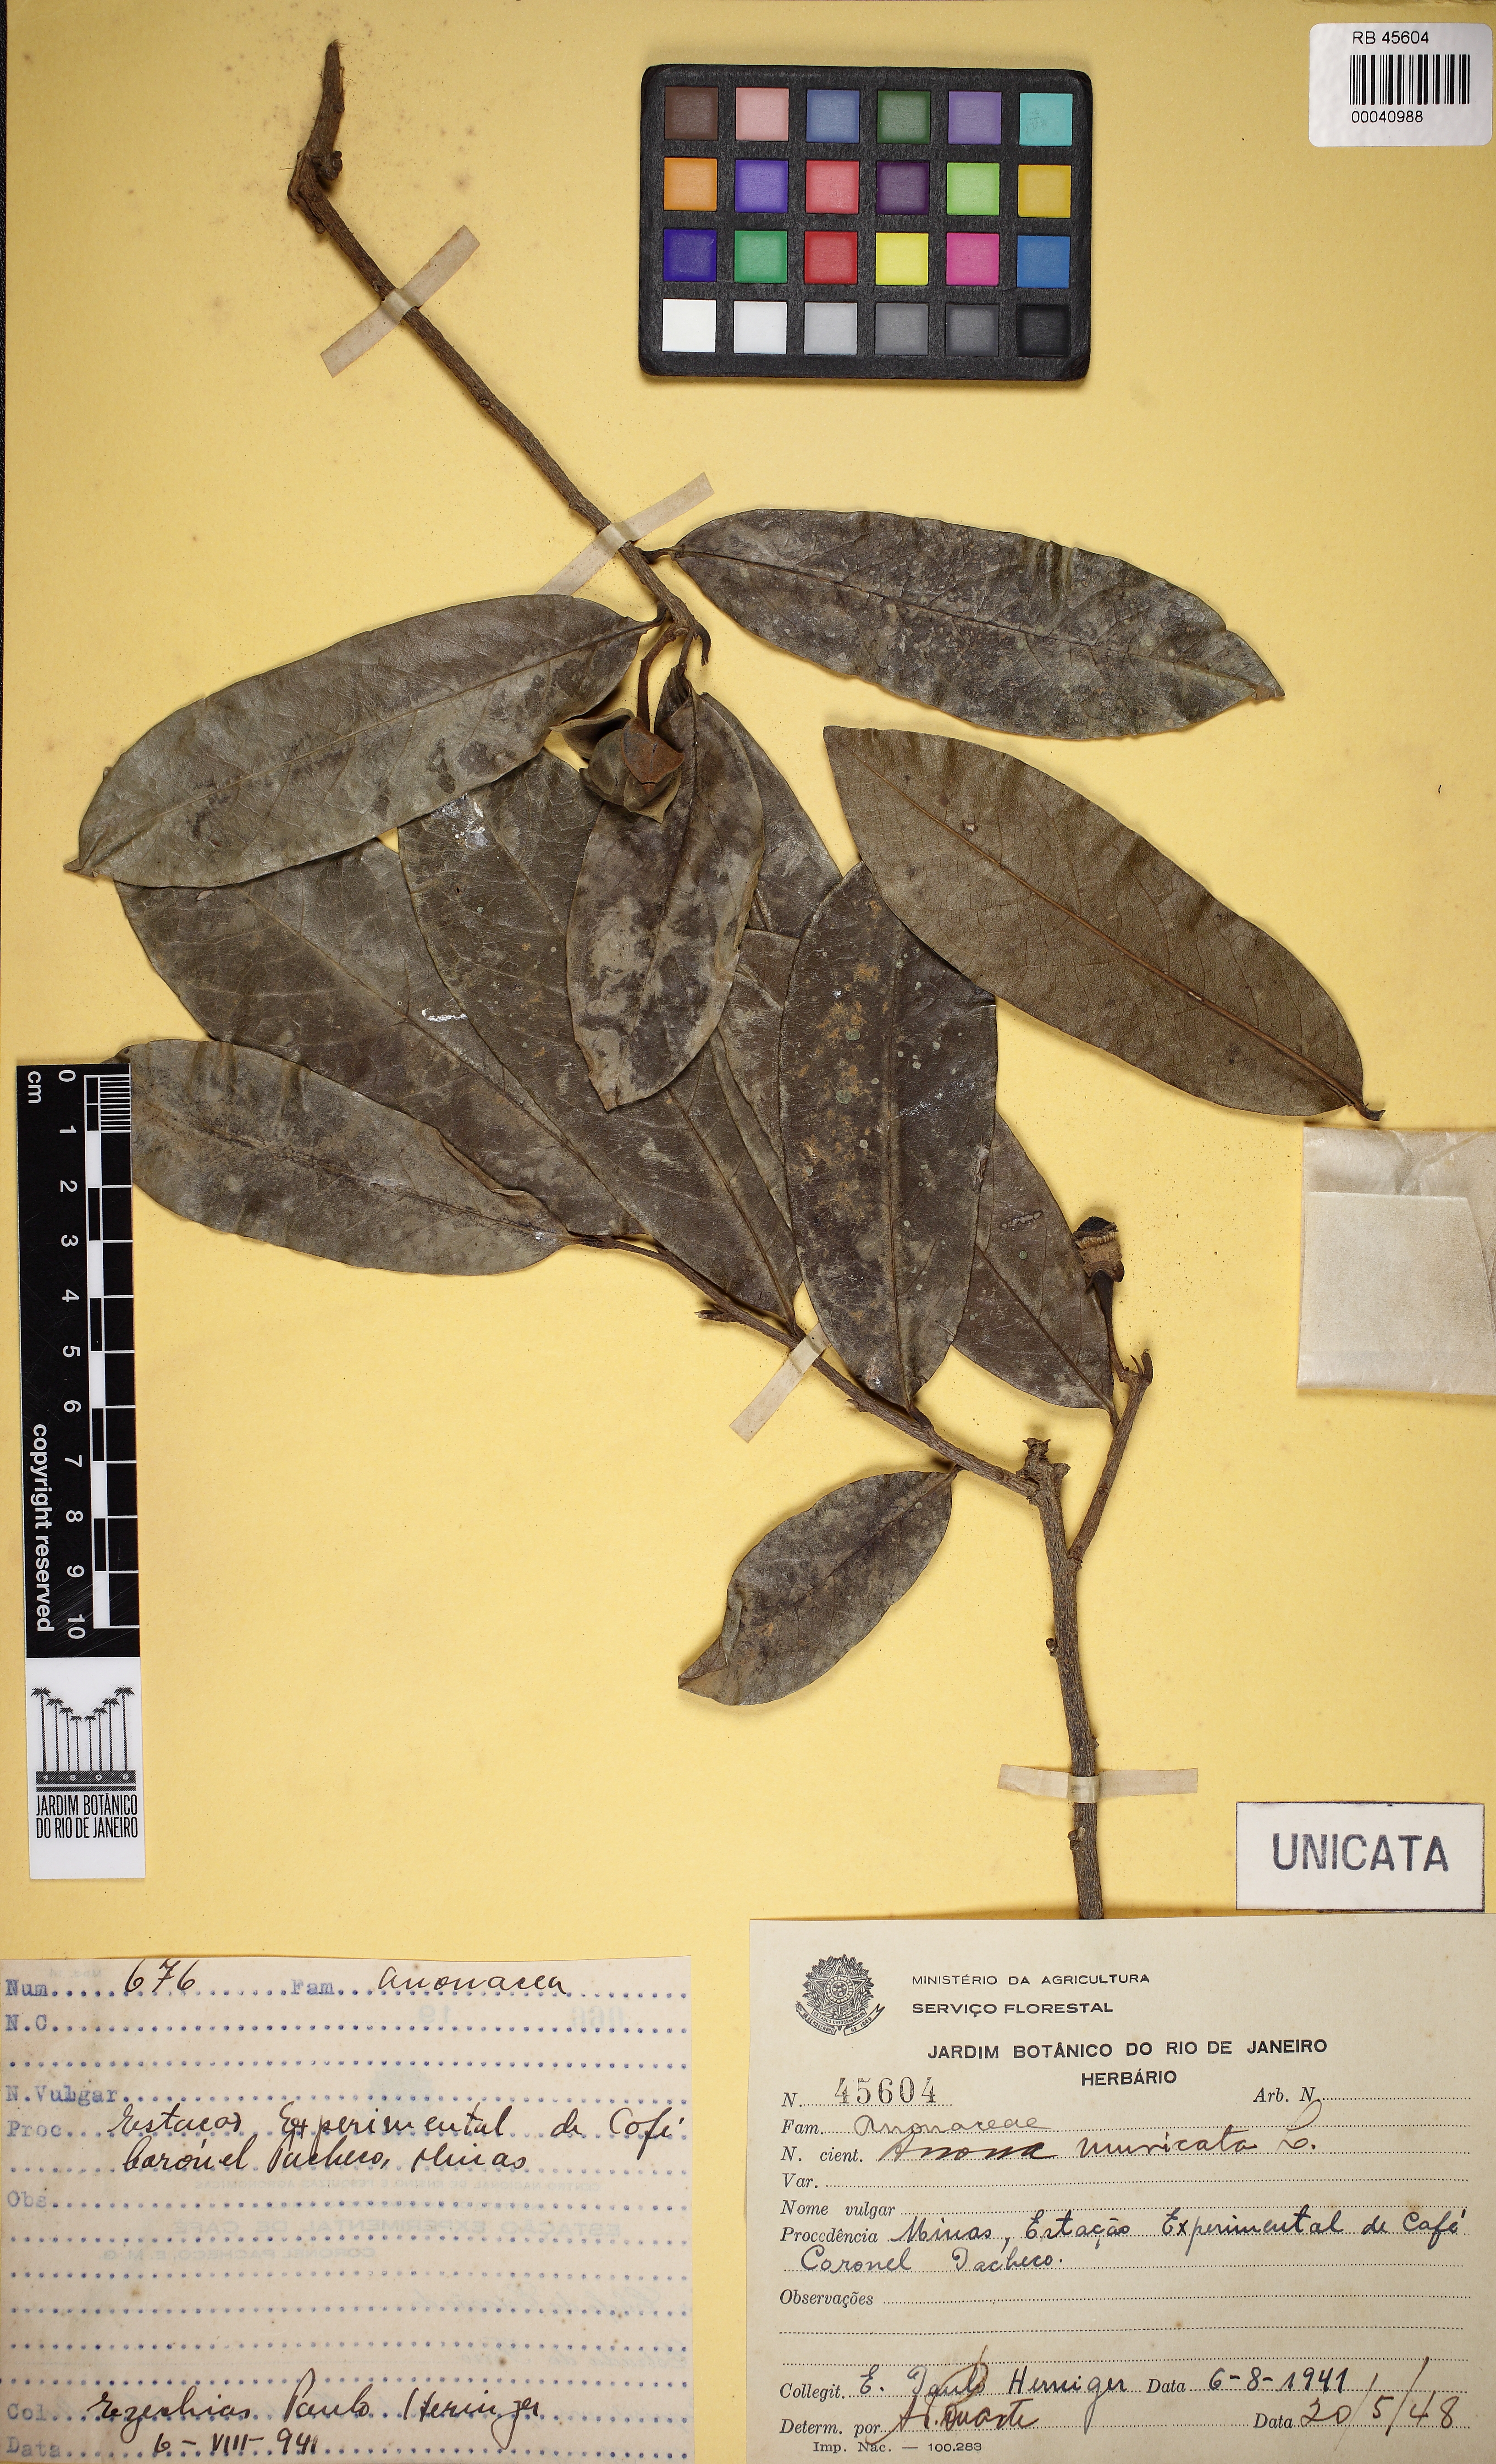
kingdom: Plantae
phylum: Tracheophyta
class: Magnoliopsida
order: Magnoliales
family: Annonaceae
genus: Annona
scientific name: Annona muricata
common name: Soursop
